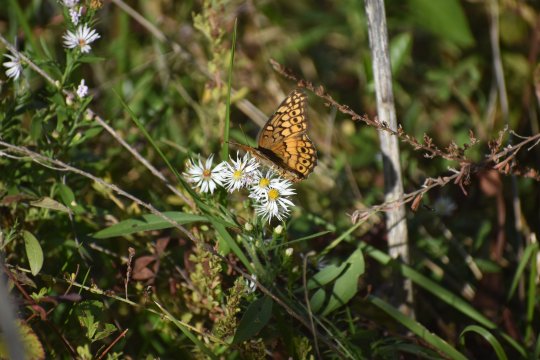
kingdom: Animalia
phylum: Arthropoda
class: Insecta
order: Lepidoptera
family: Nymphalidae
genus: Euptoieta
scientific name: Euptoieta claudia
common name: Variegated Fritillary
